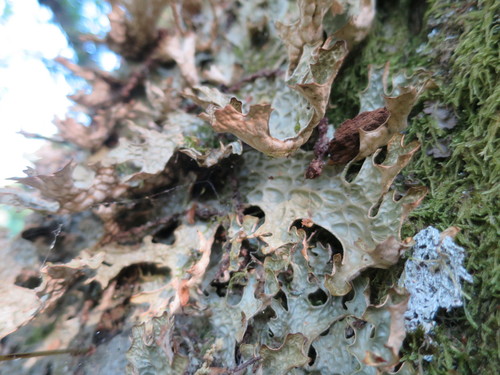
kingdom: Fungi
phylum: Ascomycota
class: Lecanoromycetes
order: Peltigerales
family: Lobariaceae
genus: Lobaria
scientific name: Lobaria pulmonaria
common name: Lungwort
